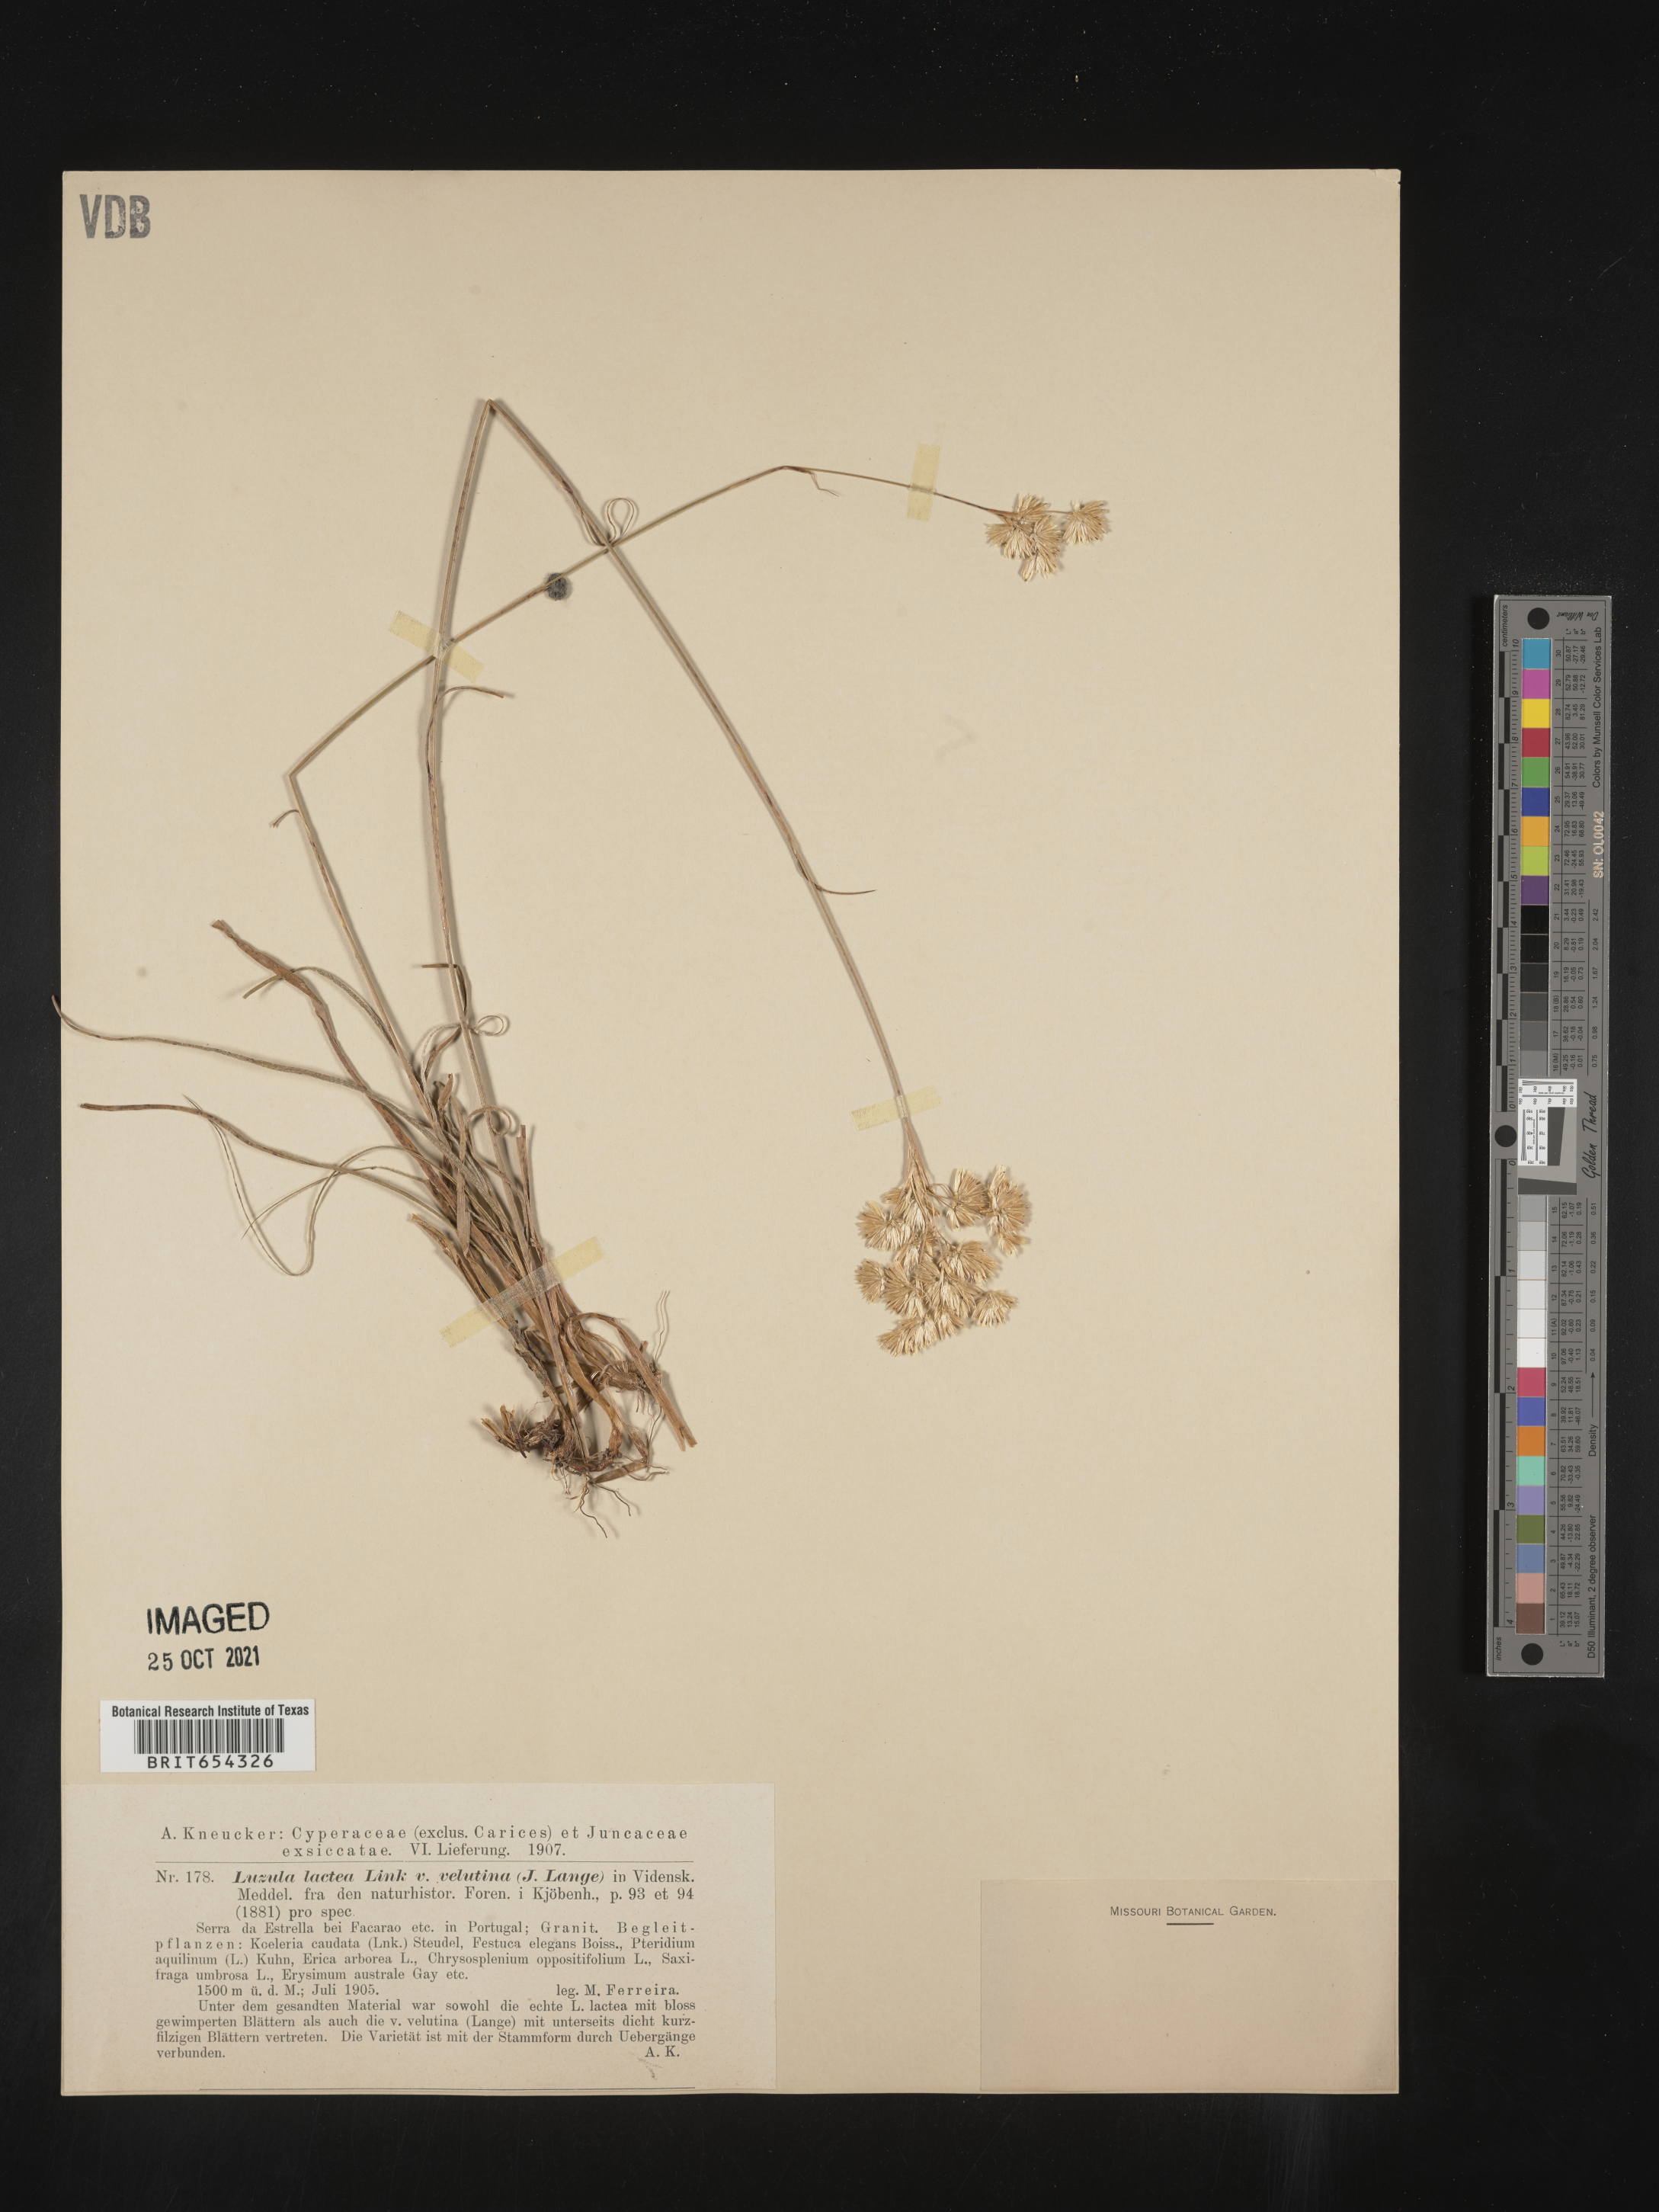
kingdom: Plantae
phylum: Tracheophyta
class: Liliopsida
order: Poales
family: Juncaceae
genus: Luzula
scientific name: Luzula
